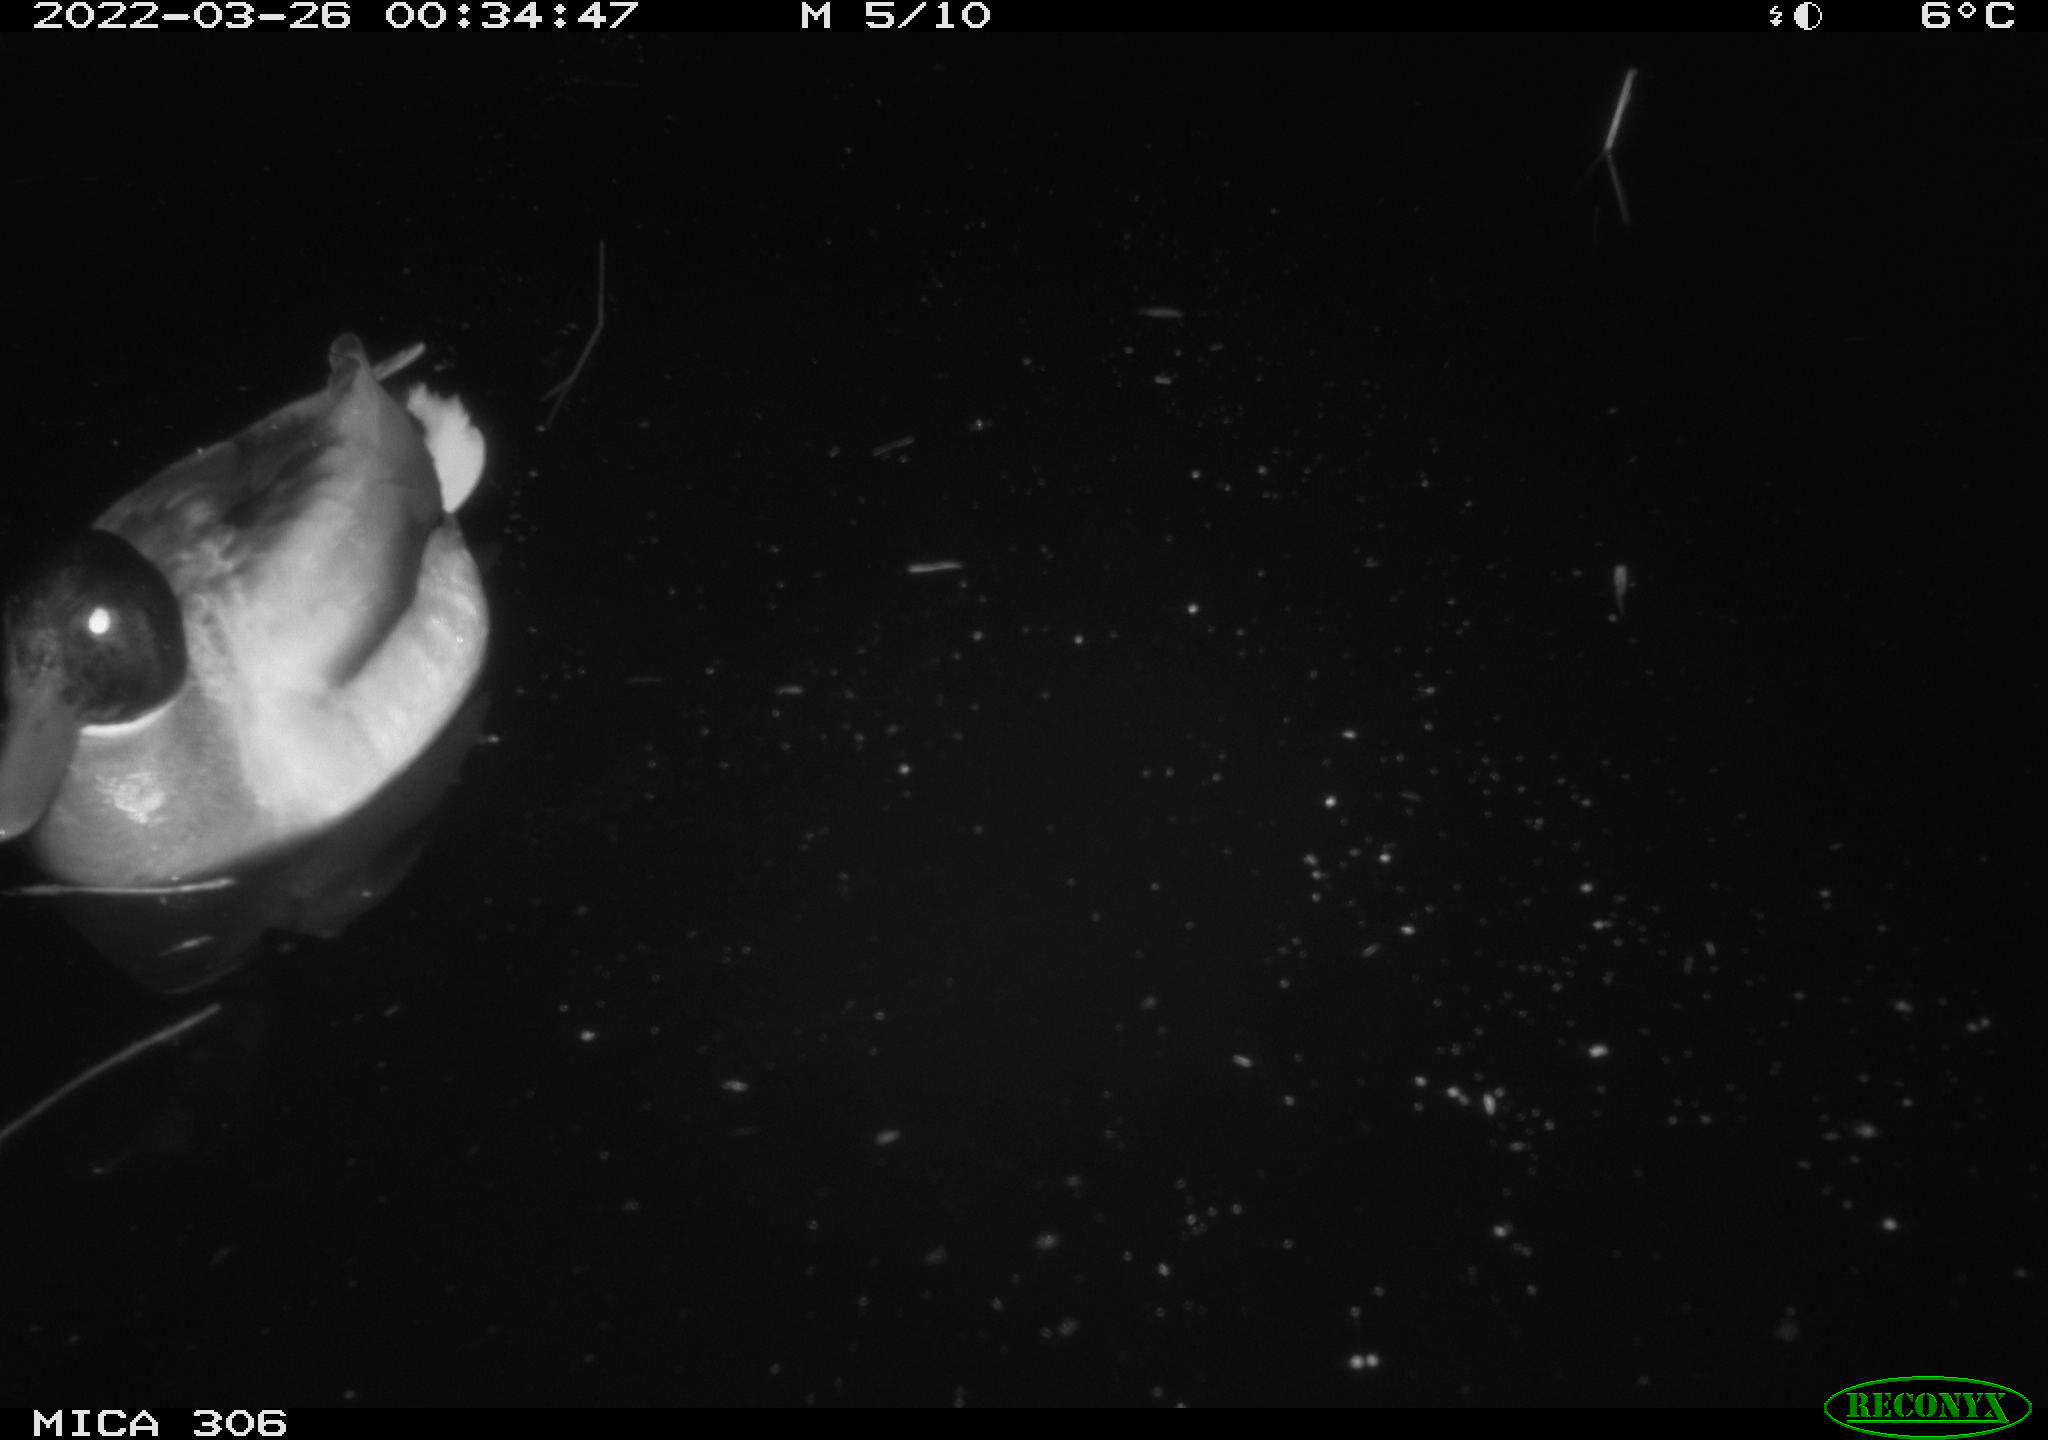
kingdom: Animalia
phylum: Chordata
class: Aves
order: Anseriformes
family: Anatidae
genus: Anas
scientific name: Anas
